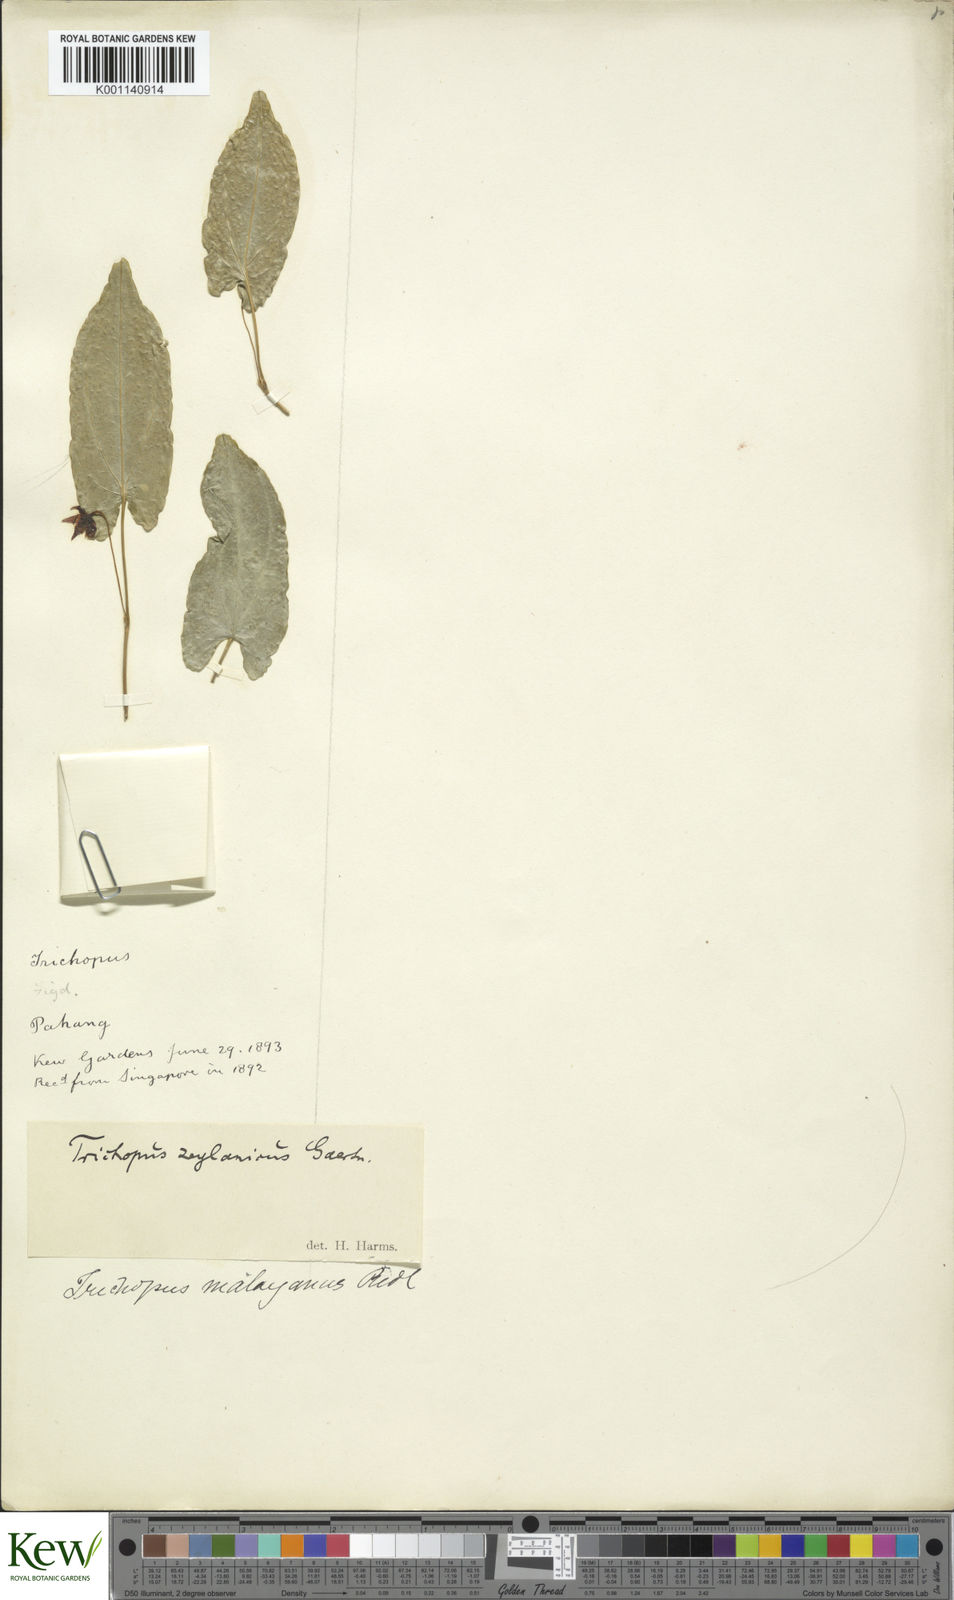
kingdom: Plantae
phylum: Tracheophyta
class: Liliopsida
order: Dioscoreales
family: Dioscoreaceae
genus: Trichopus
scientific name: Trichopus zeylanicus
